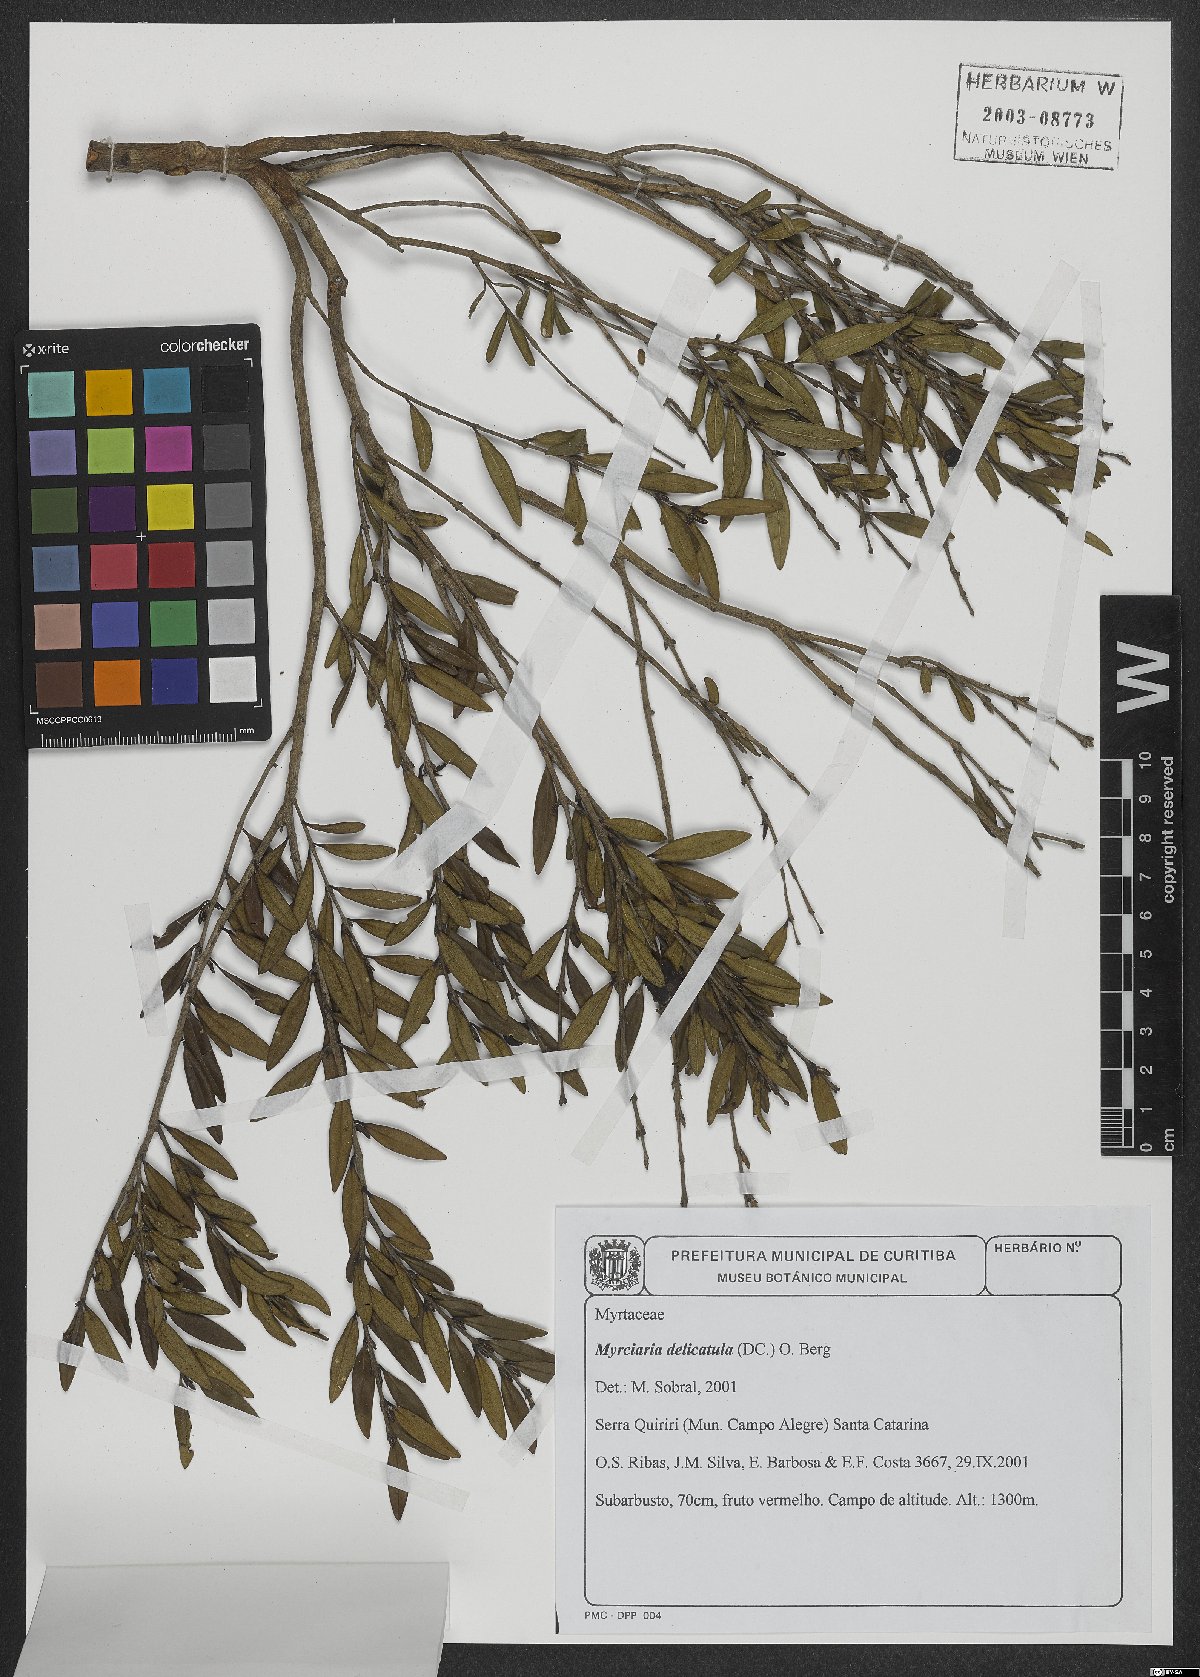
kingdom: Plantae
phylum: Tracheophyta
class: Magnoliopsida
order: Myrtales
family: Myrtaceae
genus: Myrciaria
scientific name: Myrciaria delicatula
